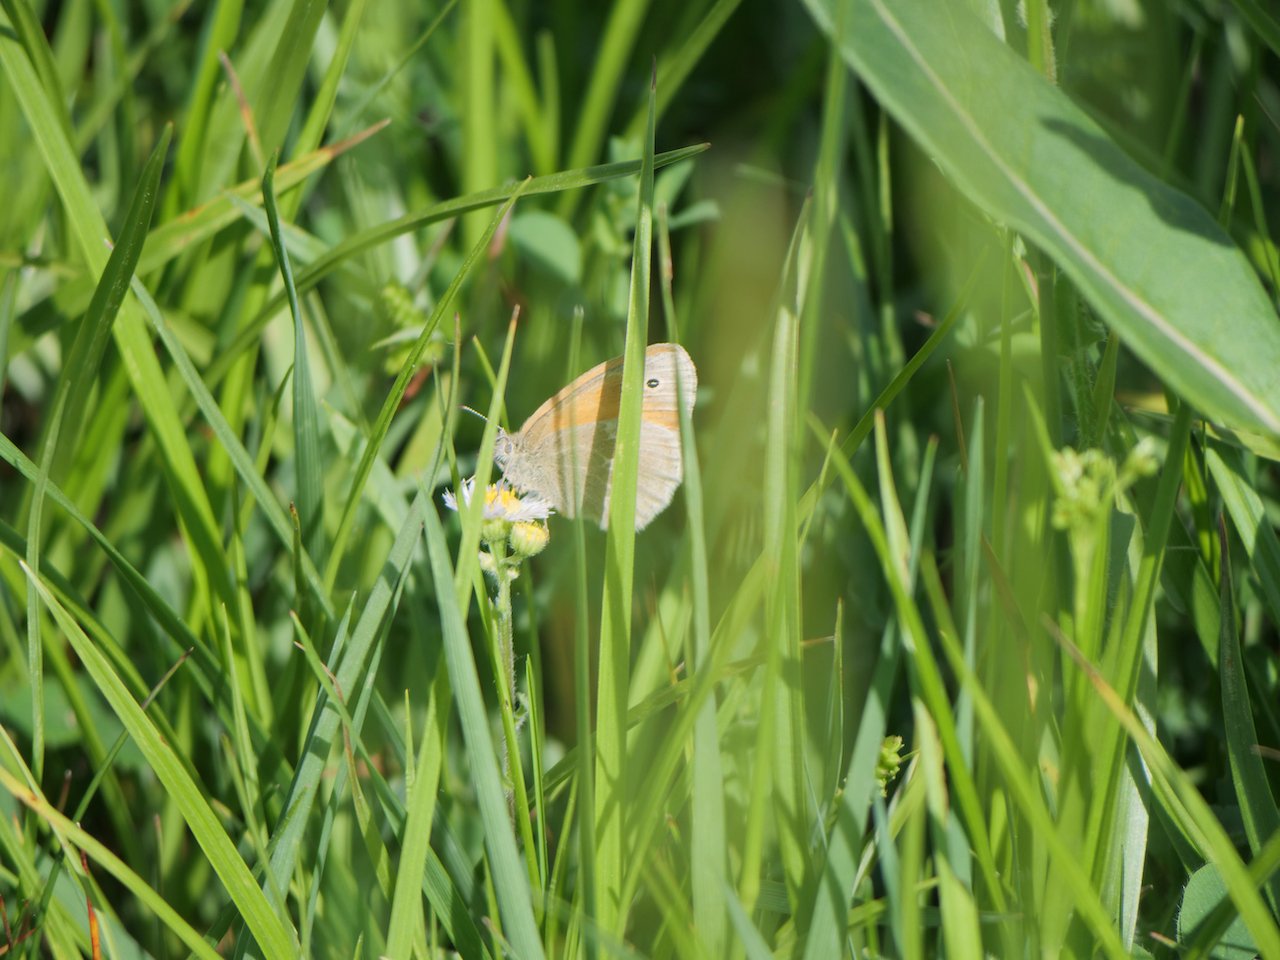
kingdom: Animalia
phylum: Arthropoda
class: Insecta
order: Lepidoptera
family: Nymphalidae
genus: Coenonympha
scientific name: Coenonympha tullia
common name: Large Heath
